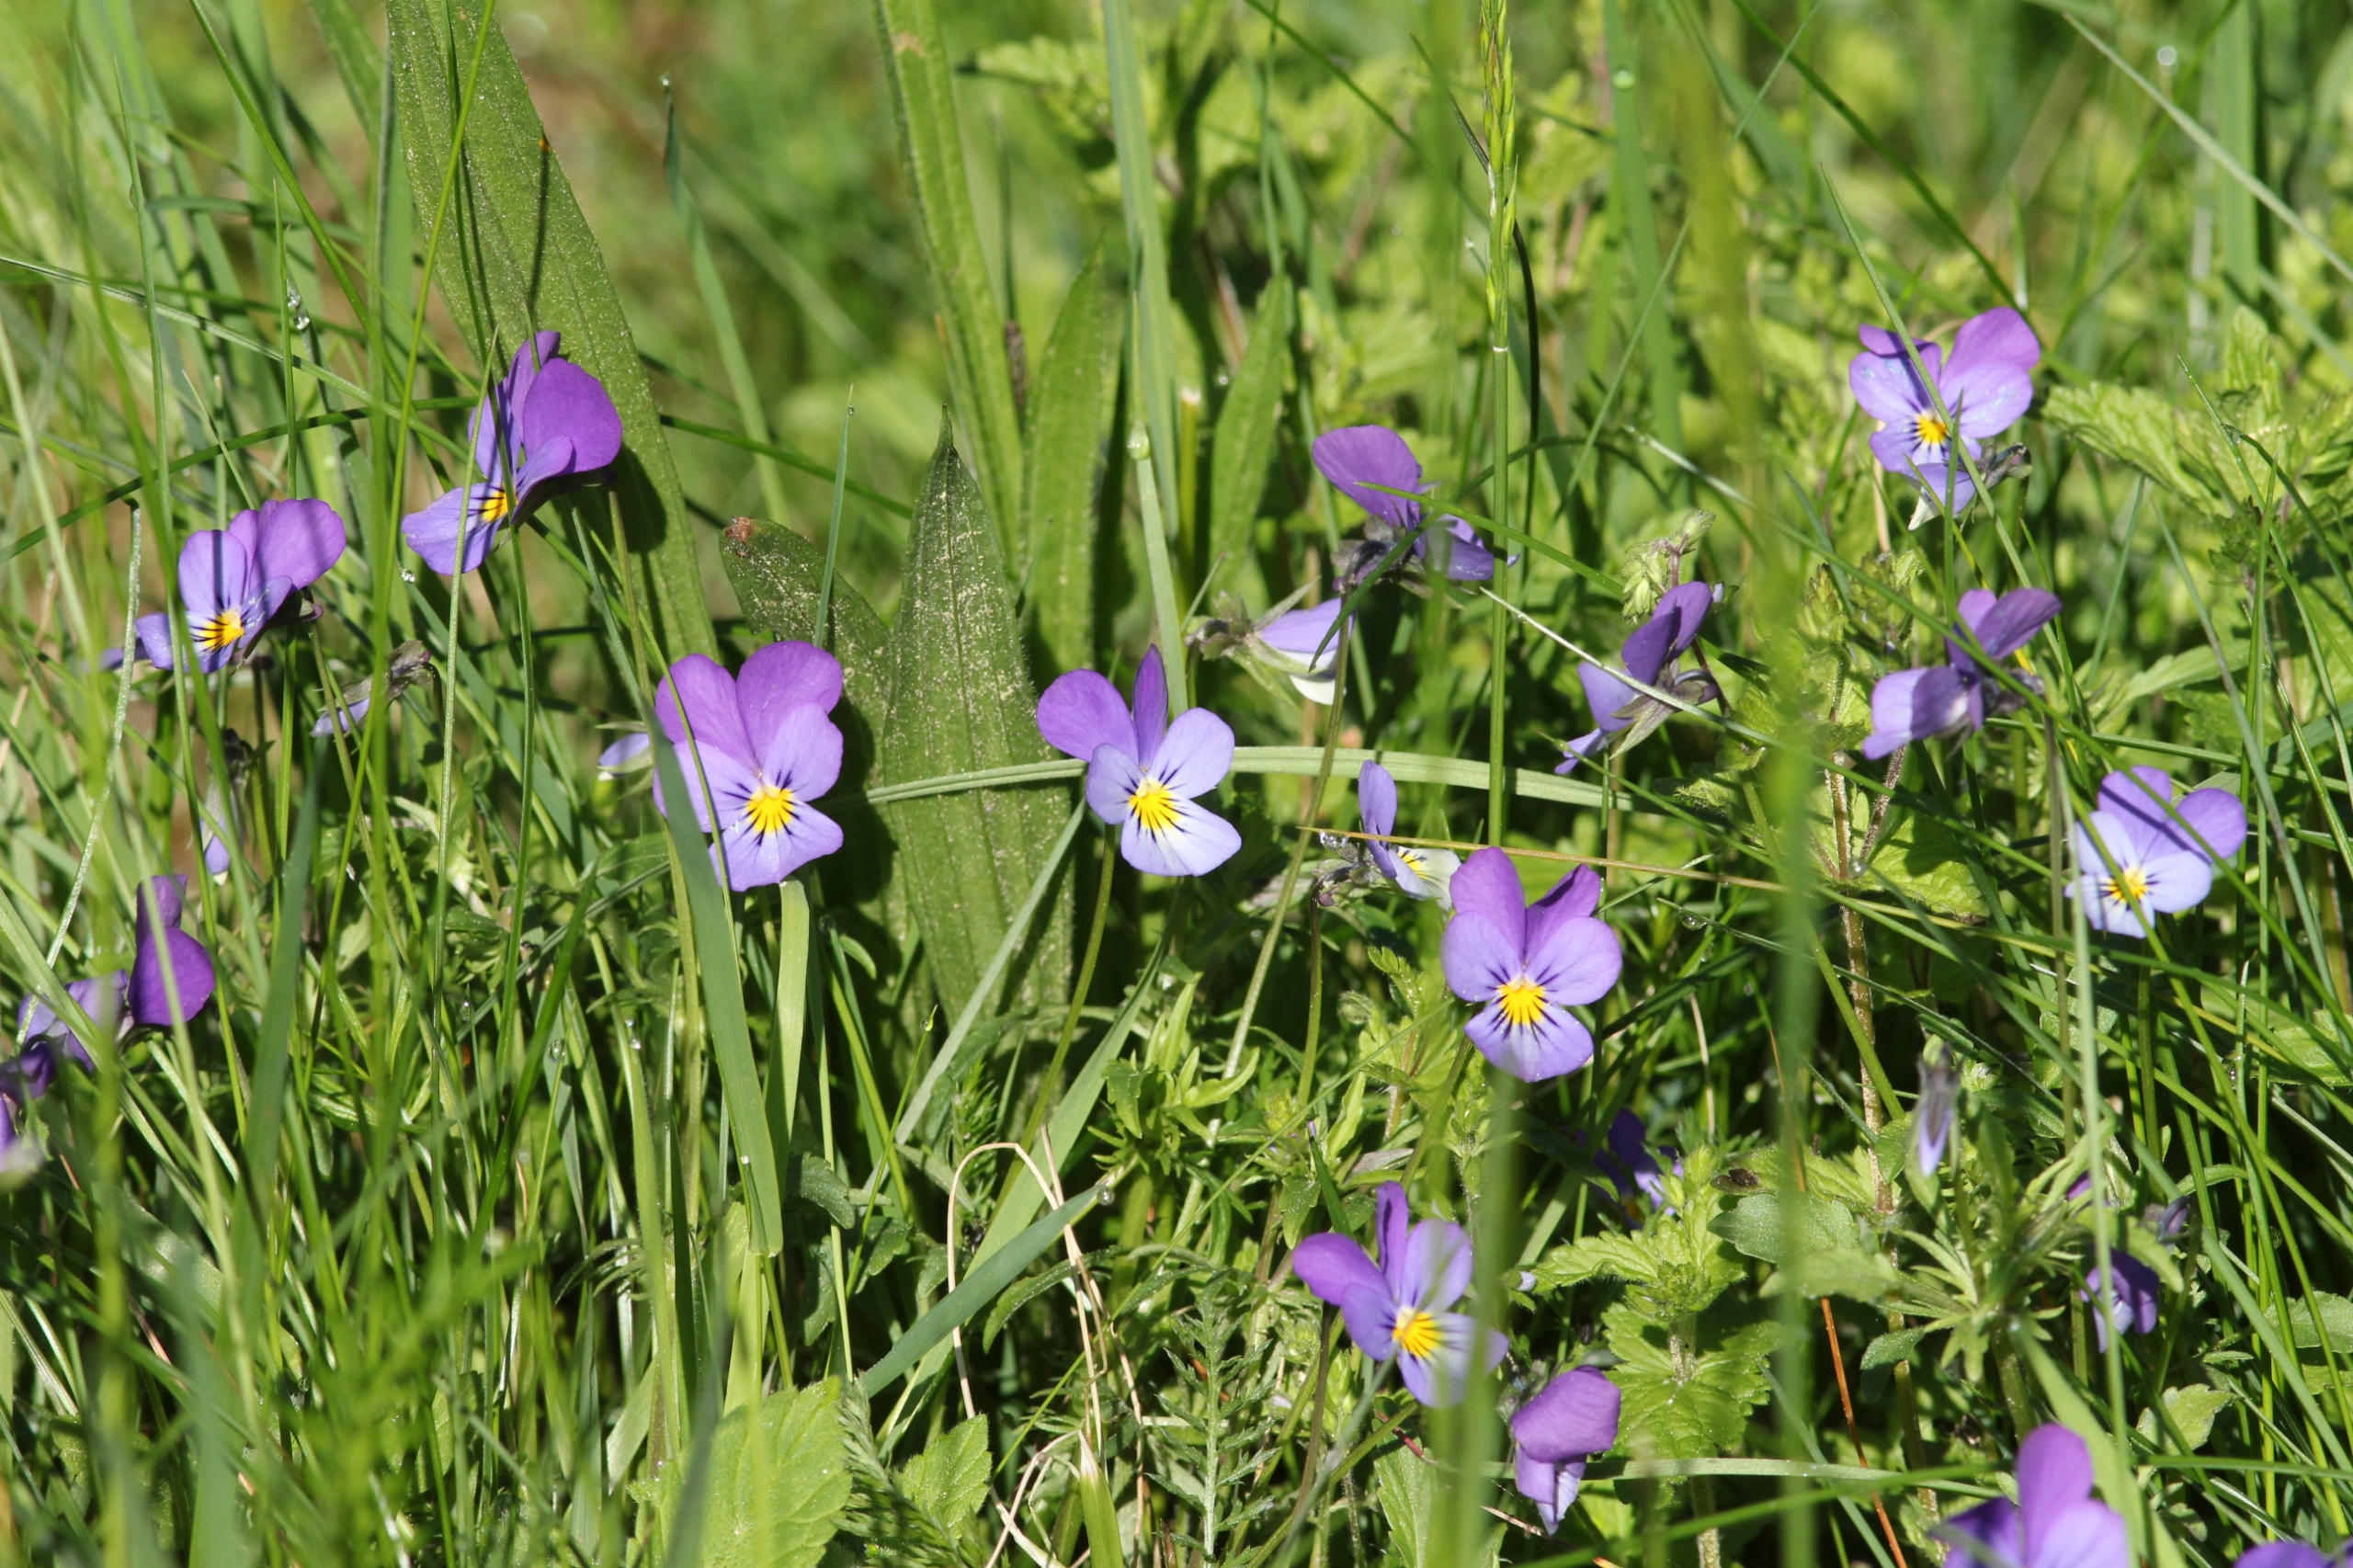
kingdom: Plantae
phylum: Tracheophyta
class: Magnoliopsida
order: Malpighiales
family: Violaceae
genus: Viola
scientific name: Viola tricolor
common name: Stedmoderblomst
